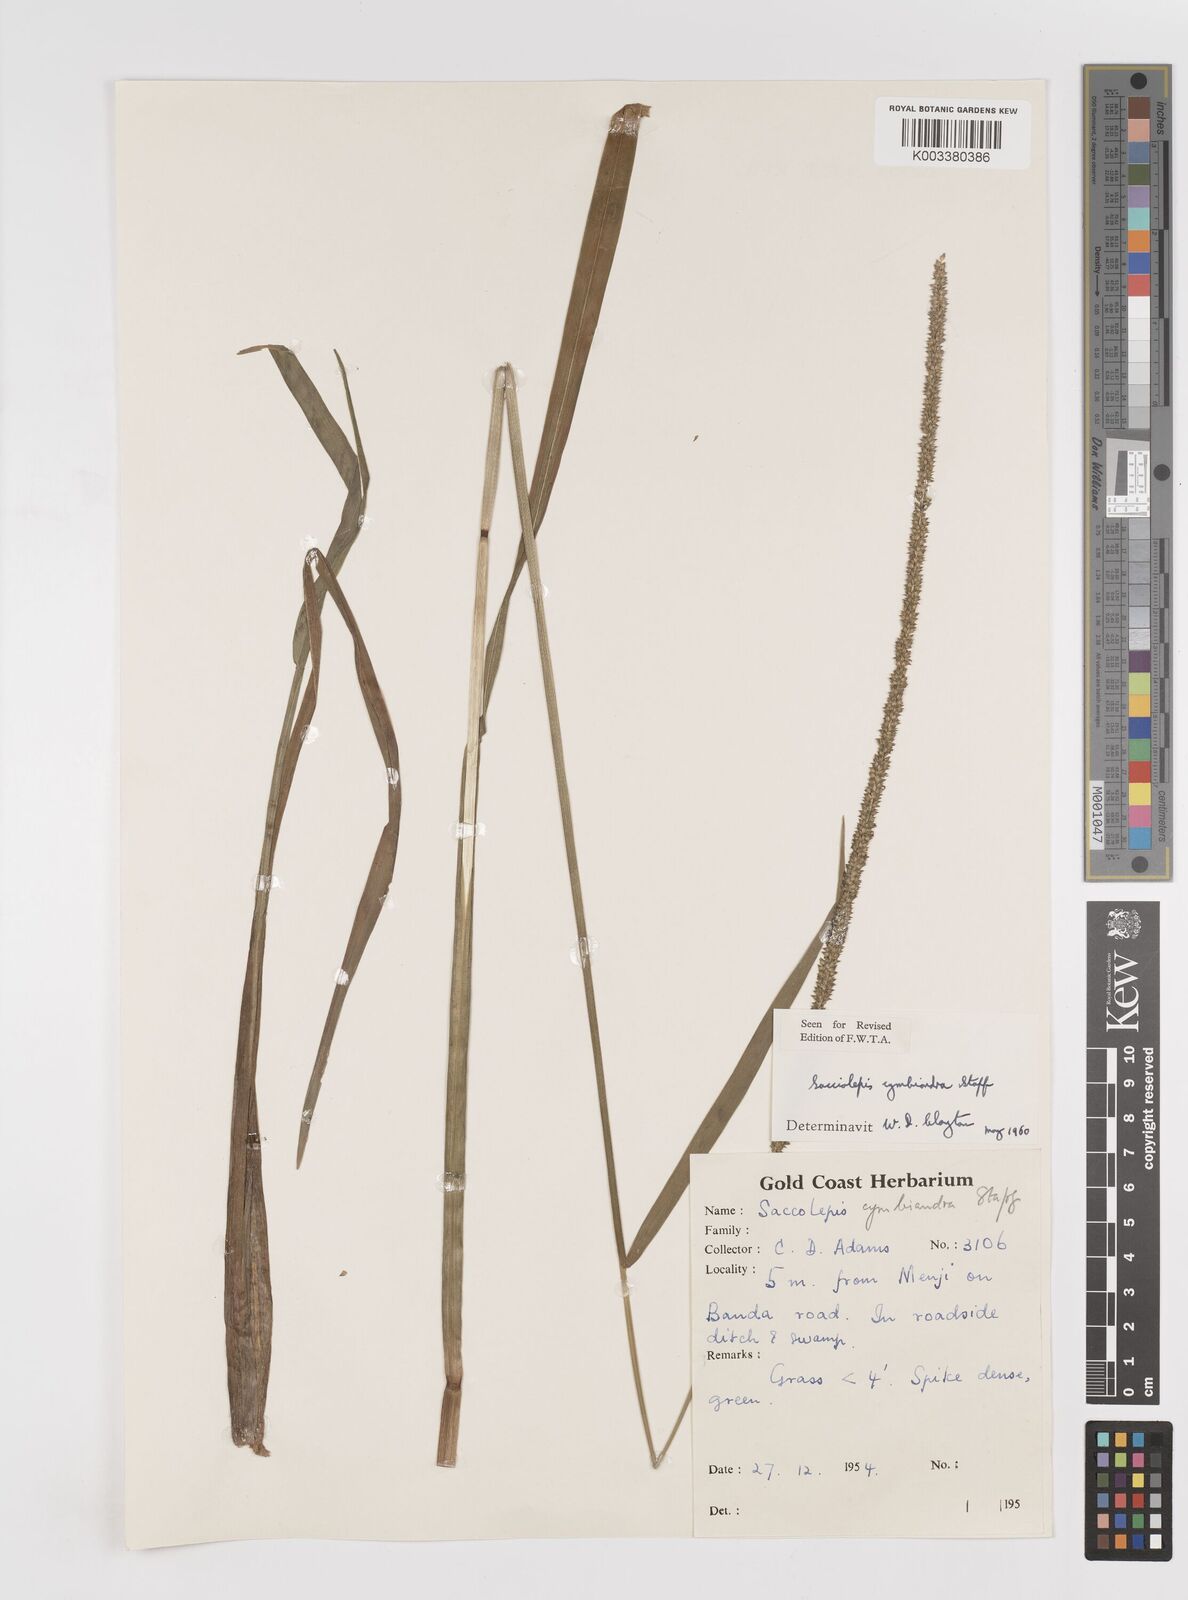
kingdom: Plantae
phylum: Tracheophyta
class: Liliopsida
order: Poales
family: Poaceae
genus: Sacciolepis
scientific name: Sacciolepis cymbiandra
